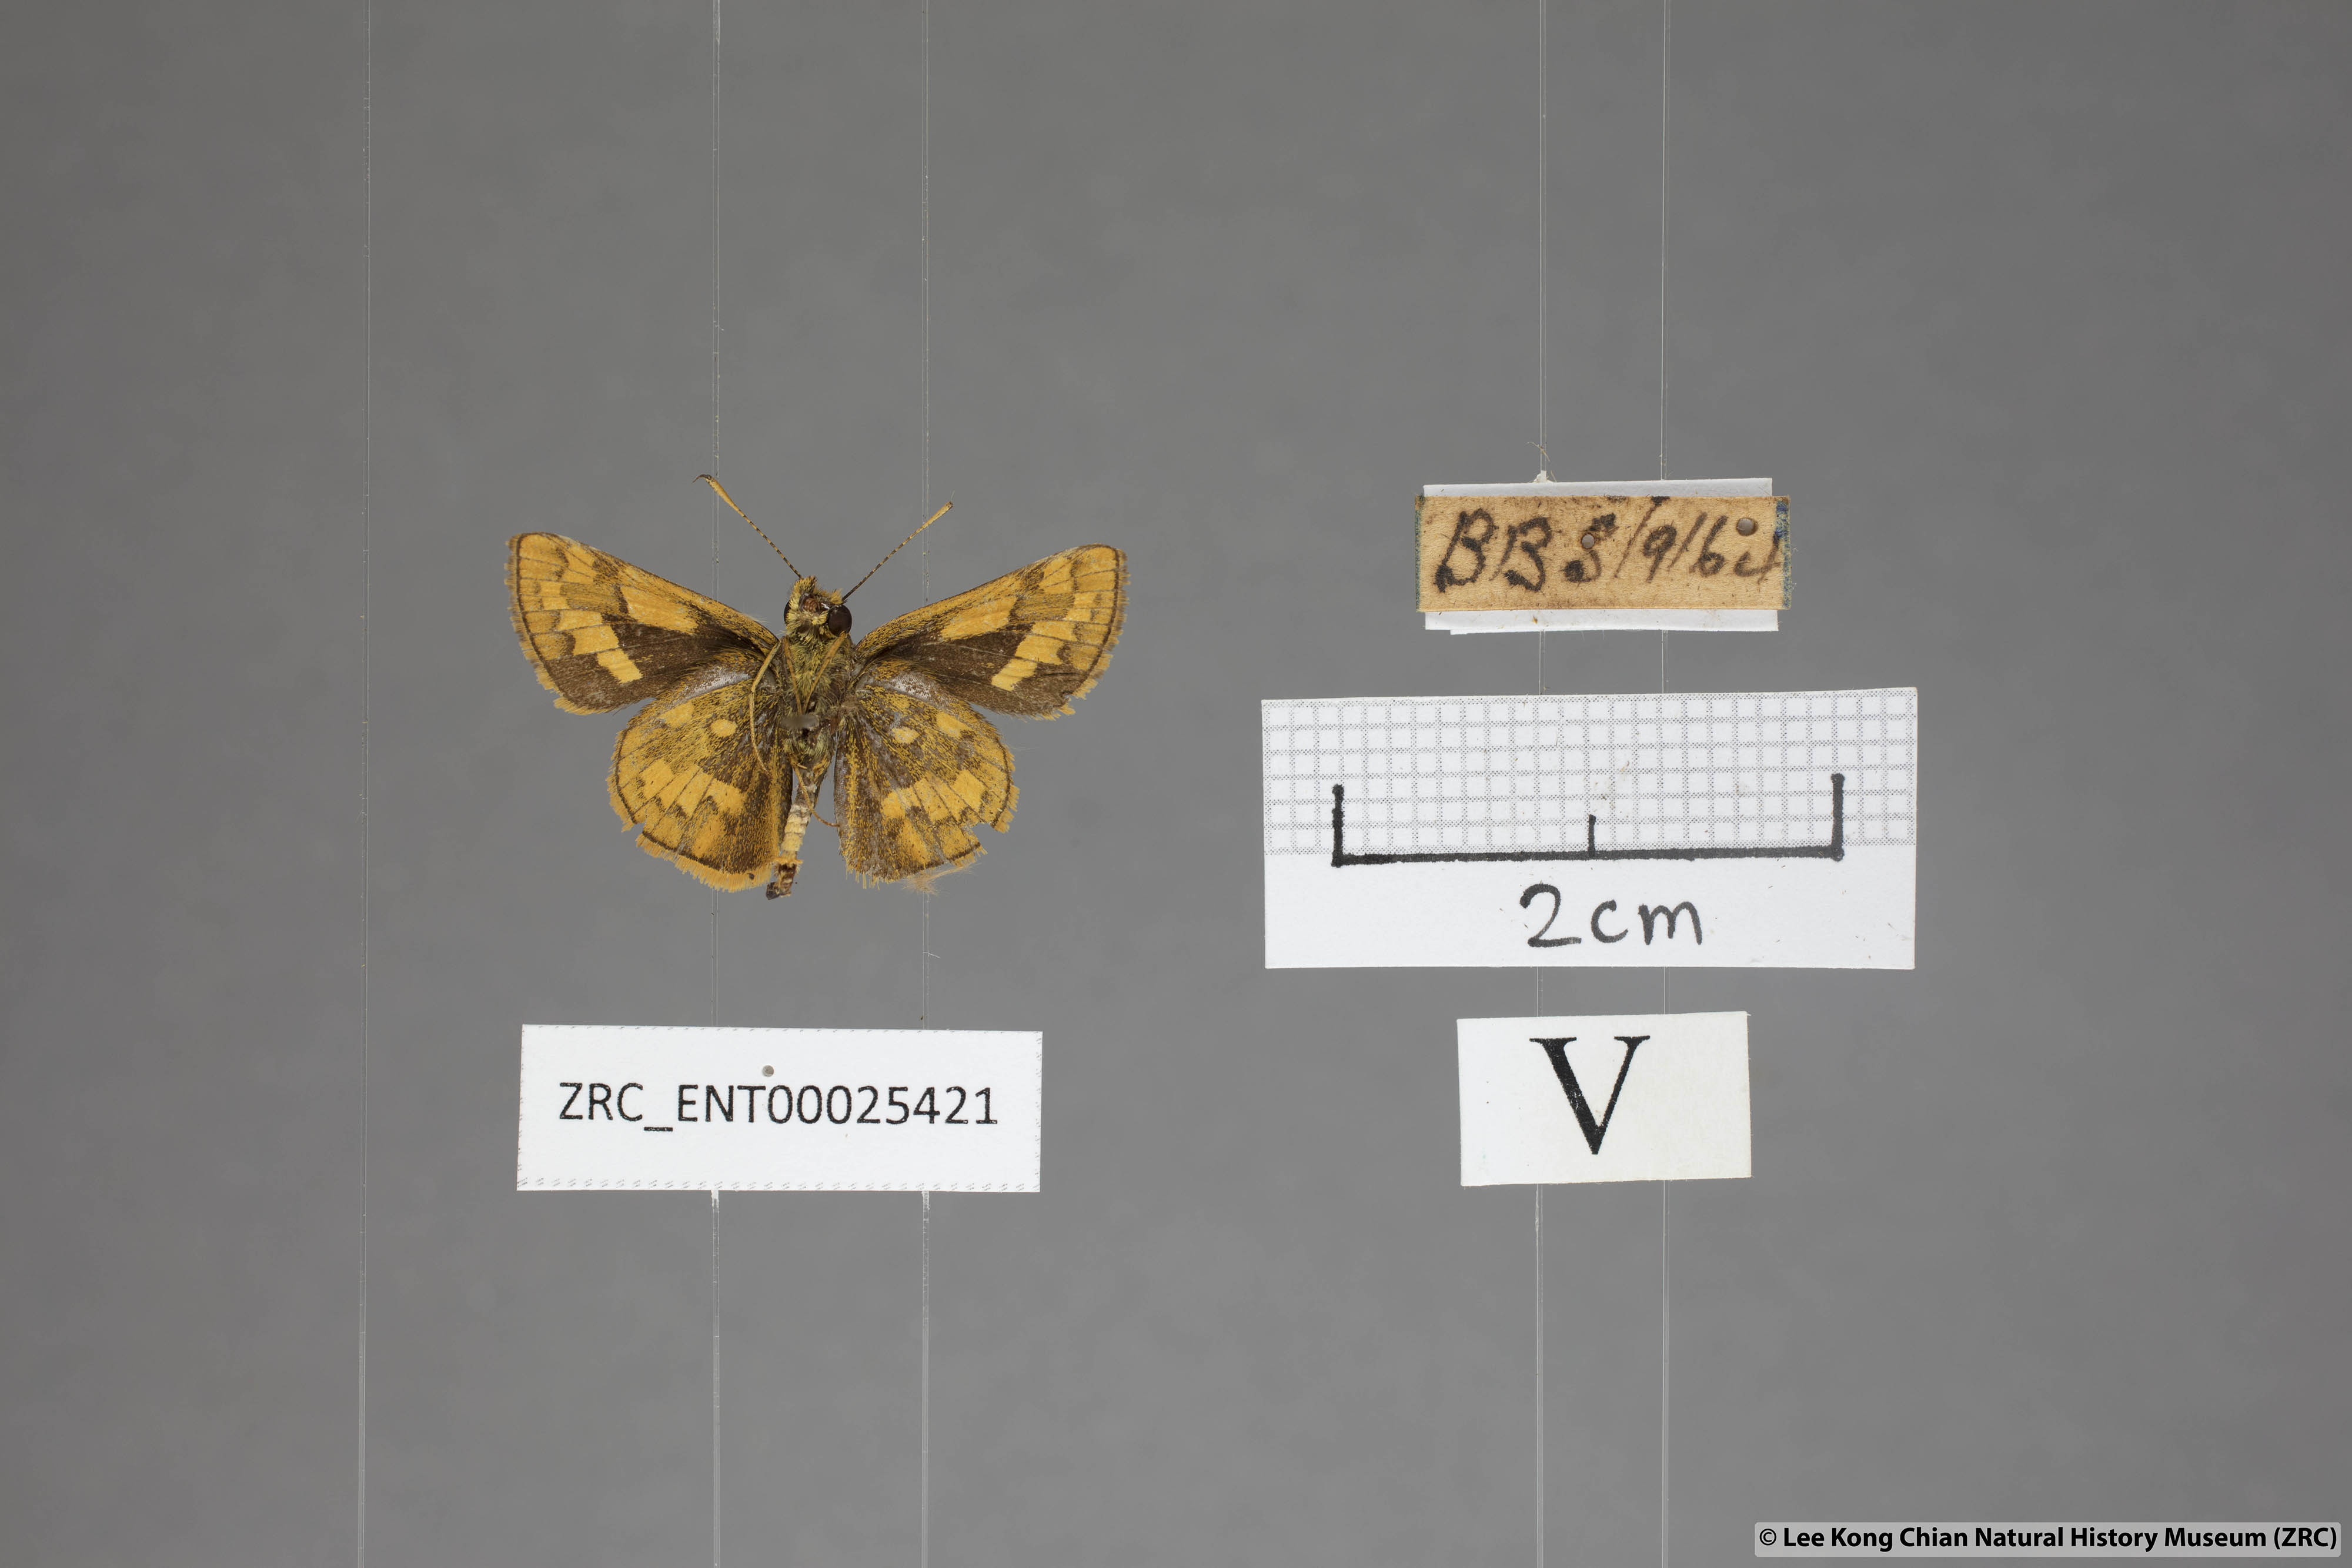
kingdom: Animalia
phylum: Arthropoda
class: Insecta
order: Lepidoptera
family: Hesperiidae
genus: Potanthus
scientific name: Potanthus omaha
